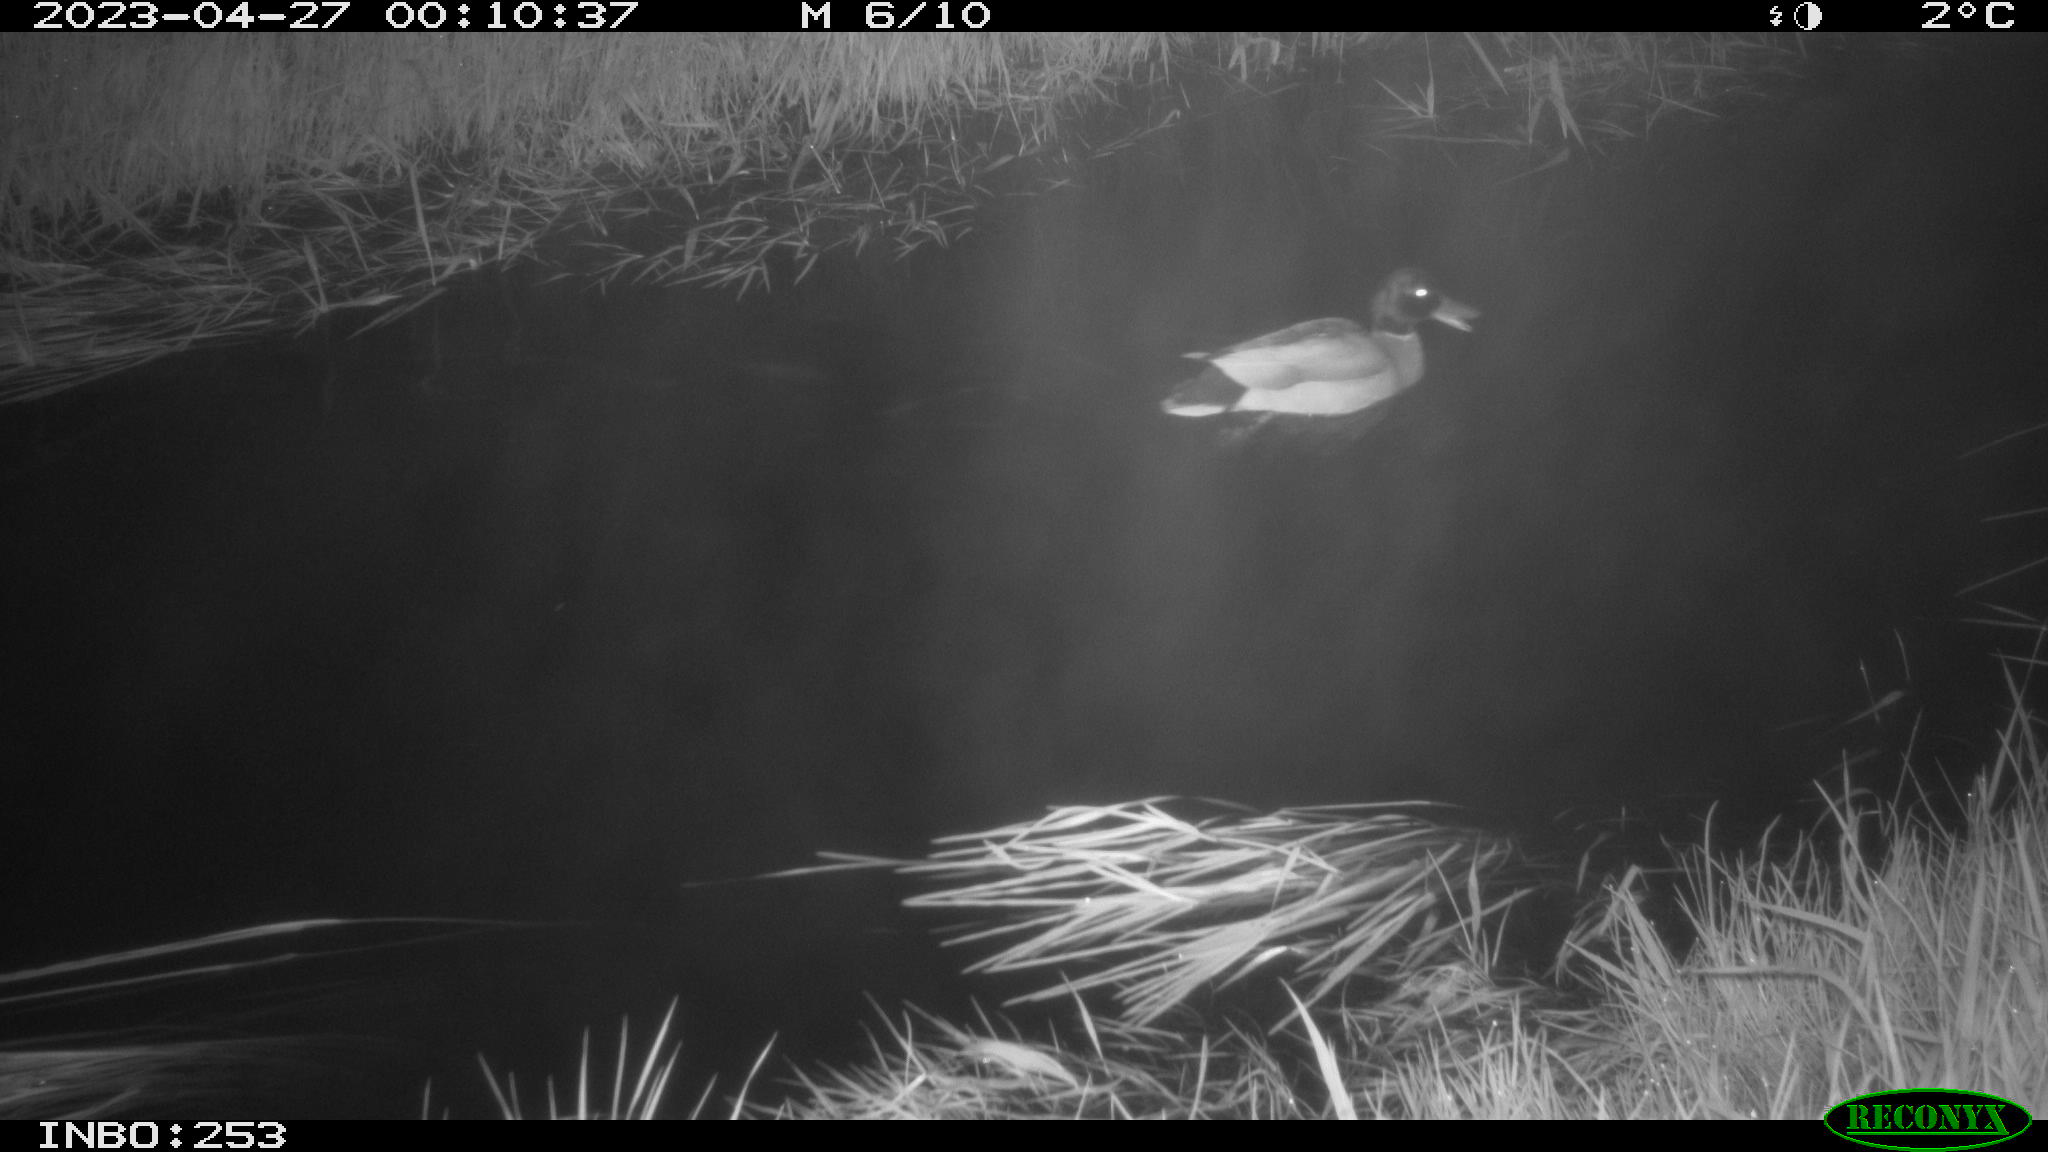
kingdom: Animalia
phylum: Chordata
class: Aves
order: Anseriformes
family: Anatidae
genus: Anas
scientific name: Anas
